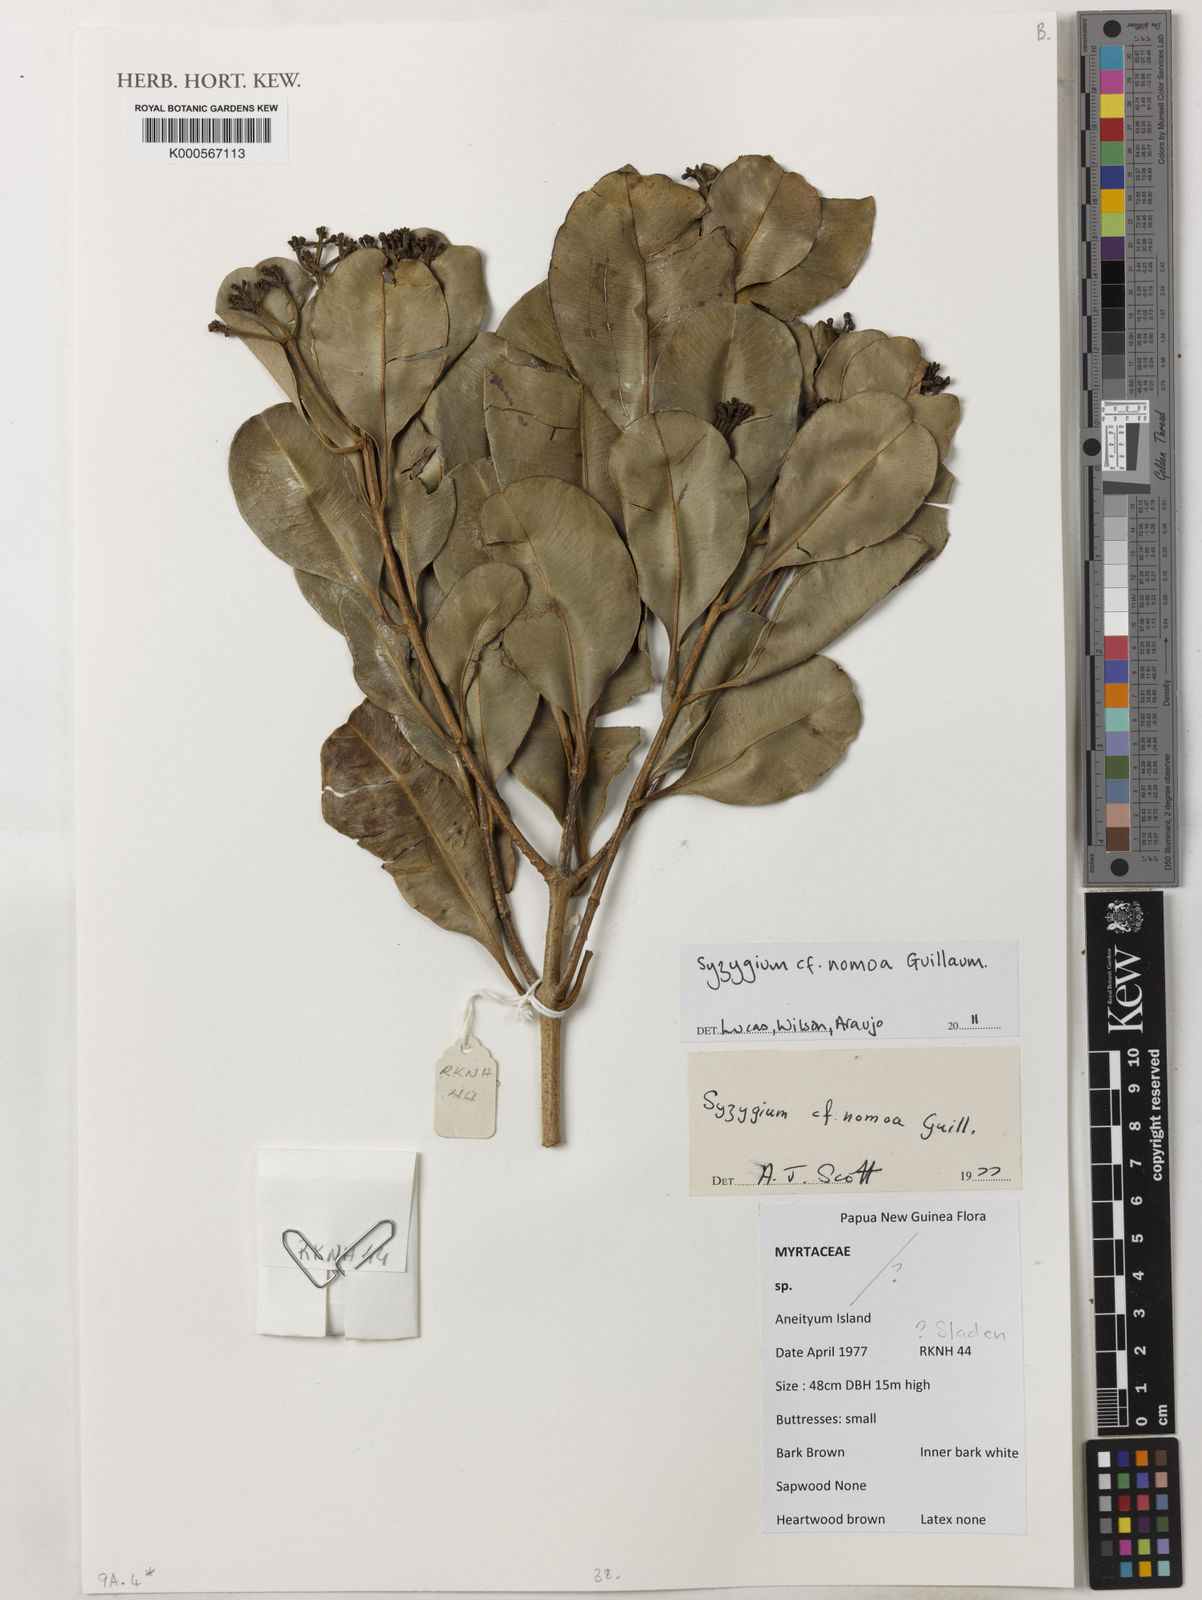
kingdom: Plantae
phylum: Tracheophyta
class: Magnoliopsida
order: Myrtales
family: Myrtaceae
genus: Syzygium
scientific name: Syzygium
